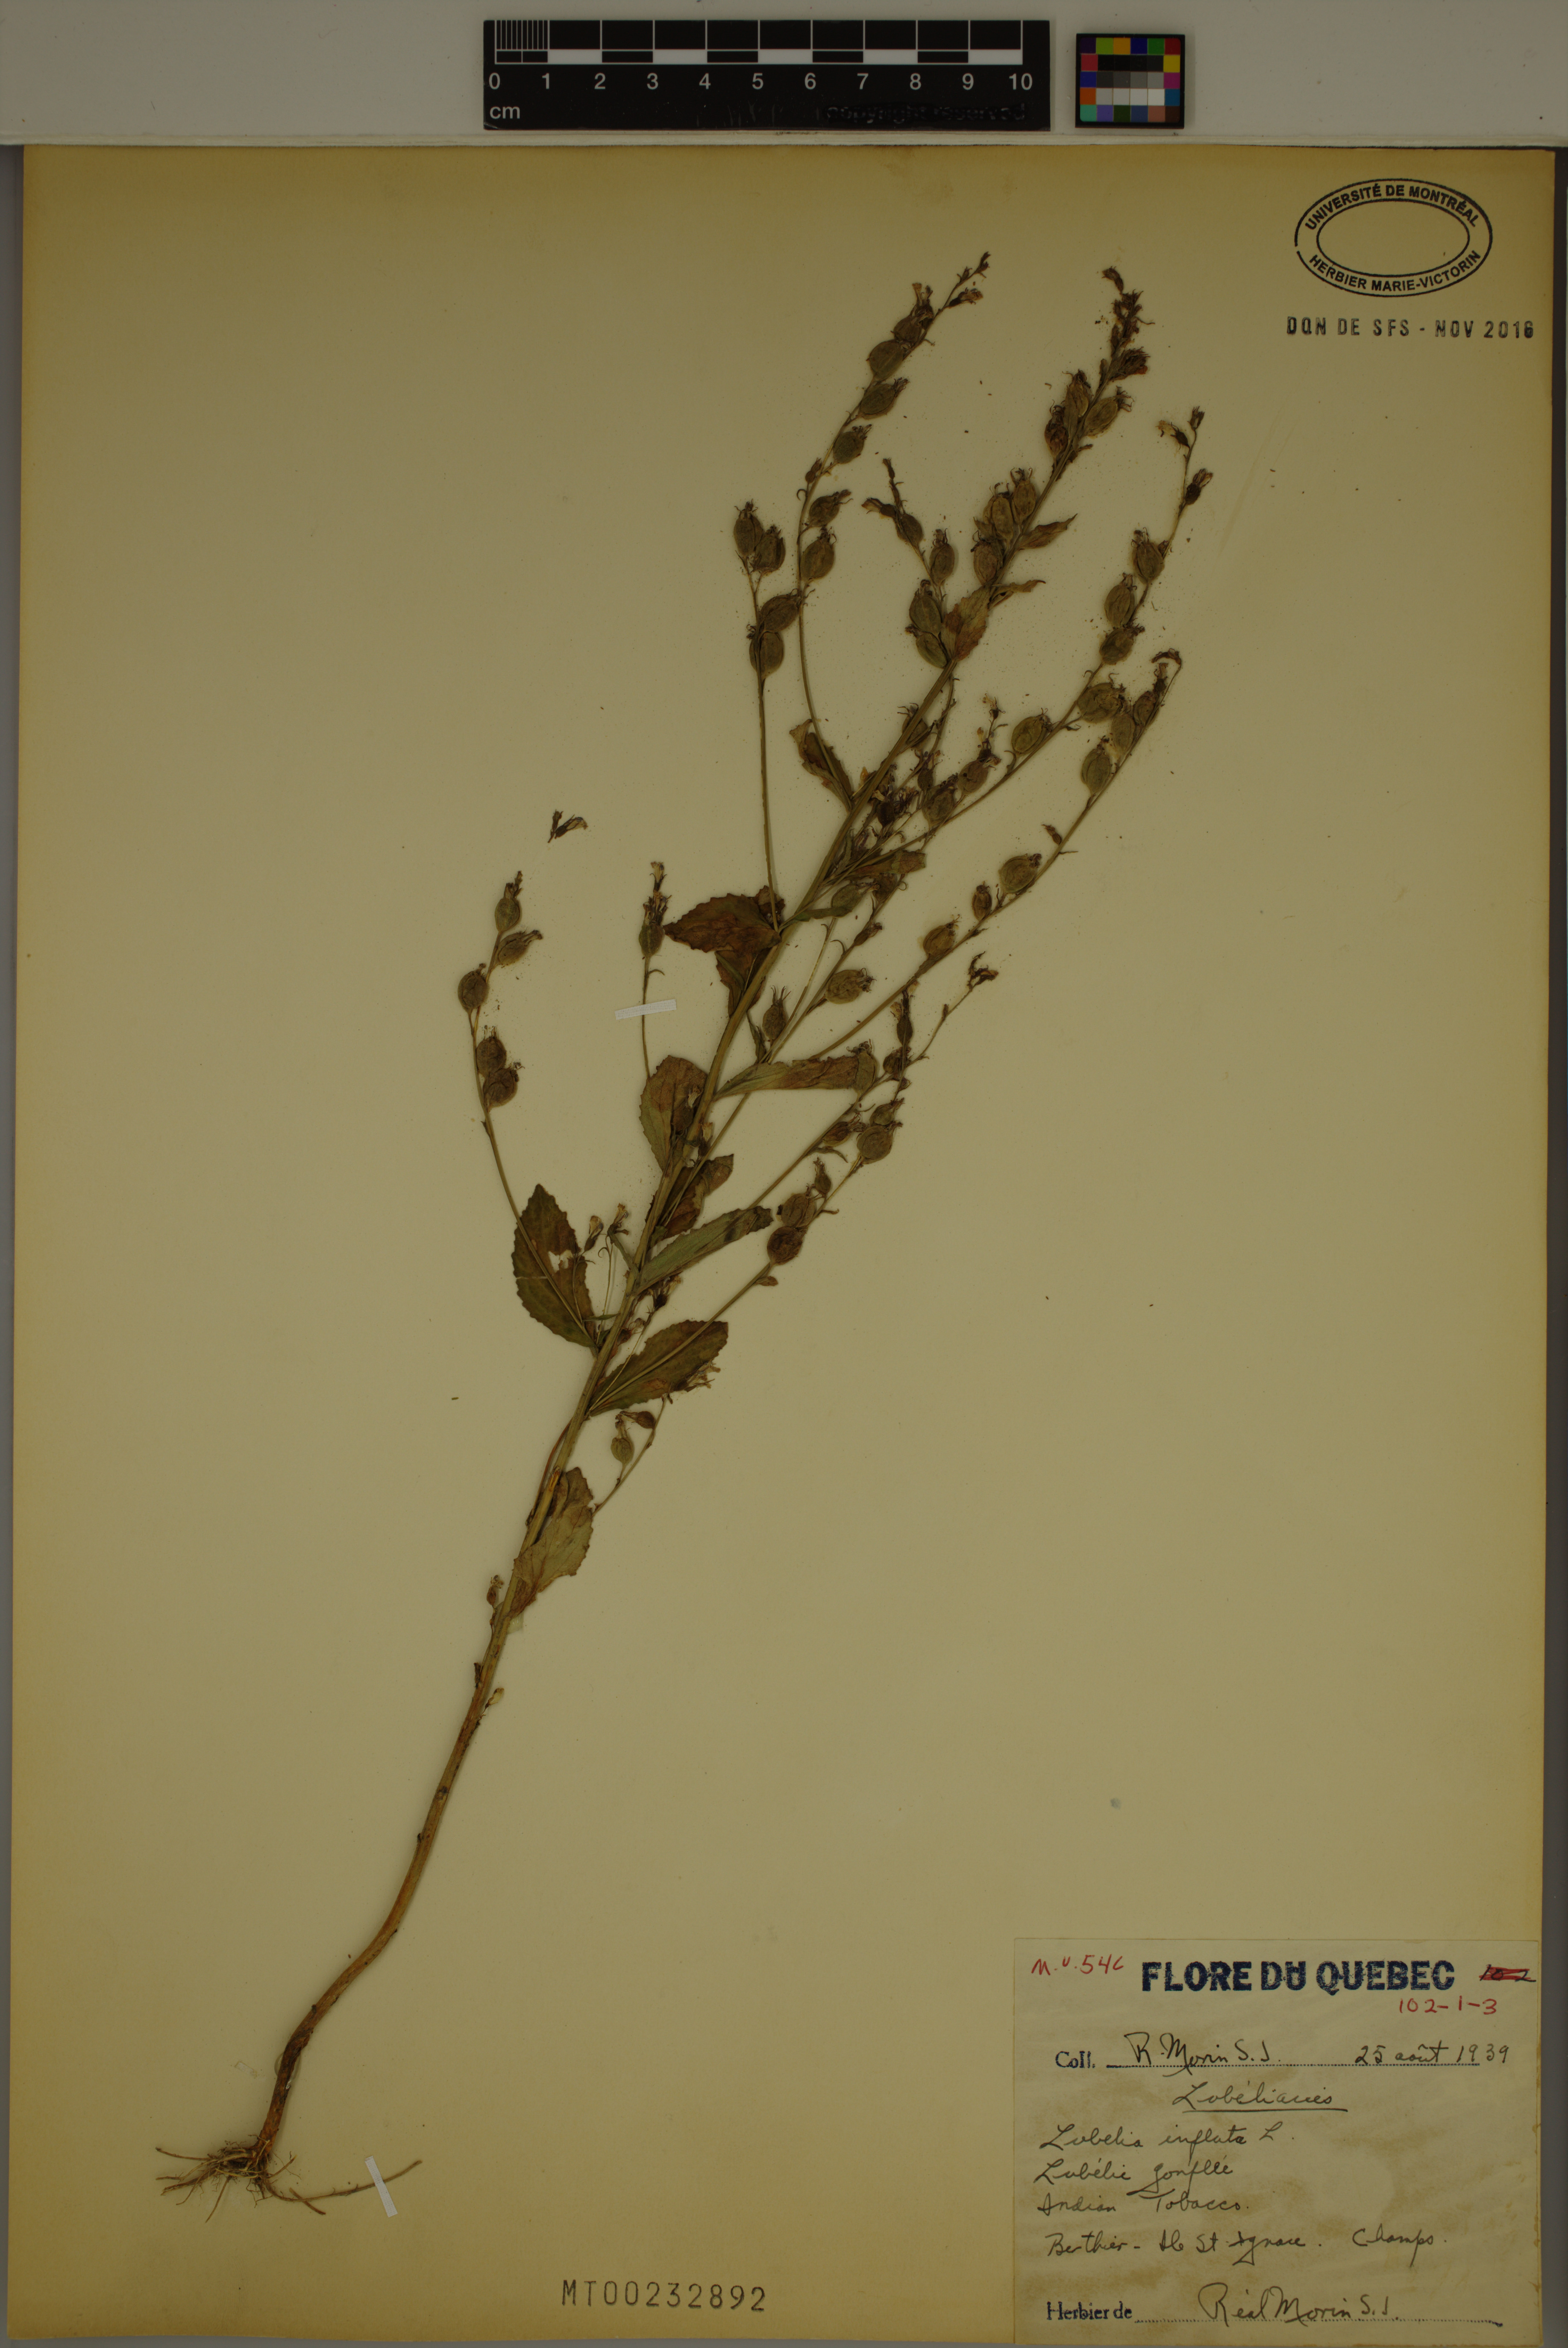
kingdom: Plantae
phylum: Tracheophyta
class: Magnoliopsida
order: Asterales
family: Campanulaceae
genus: Lobelia
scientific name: Lobelia inflata
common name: Indian tobacco
